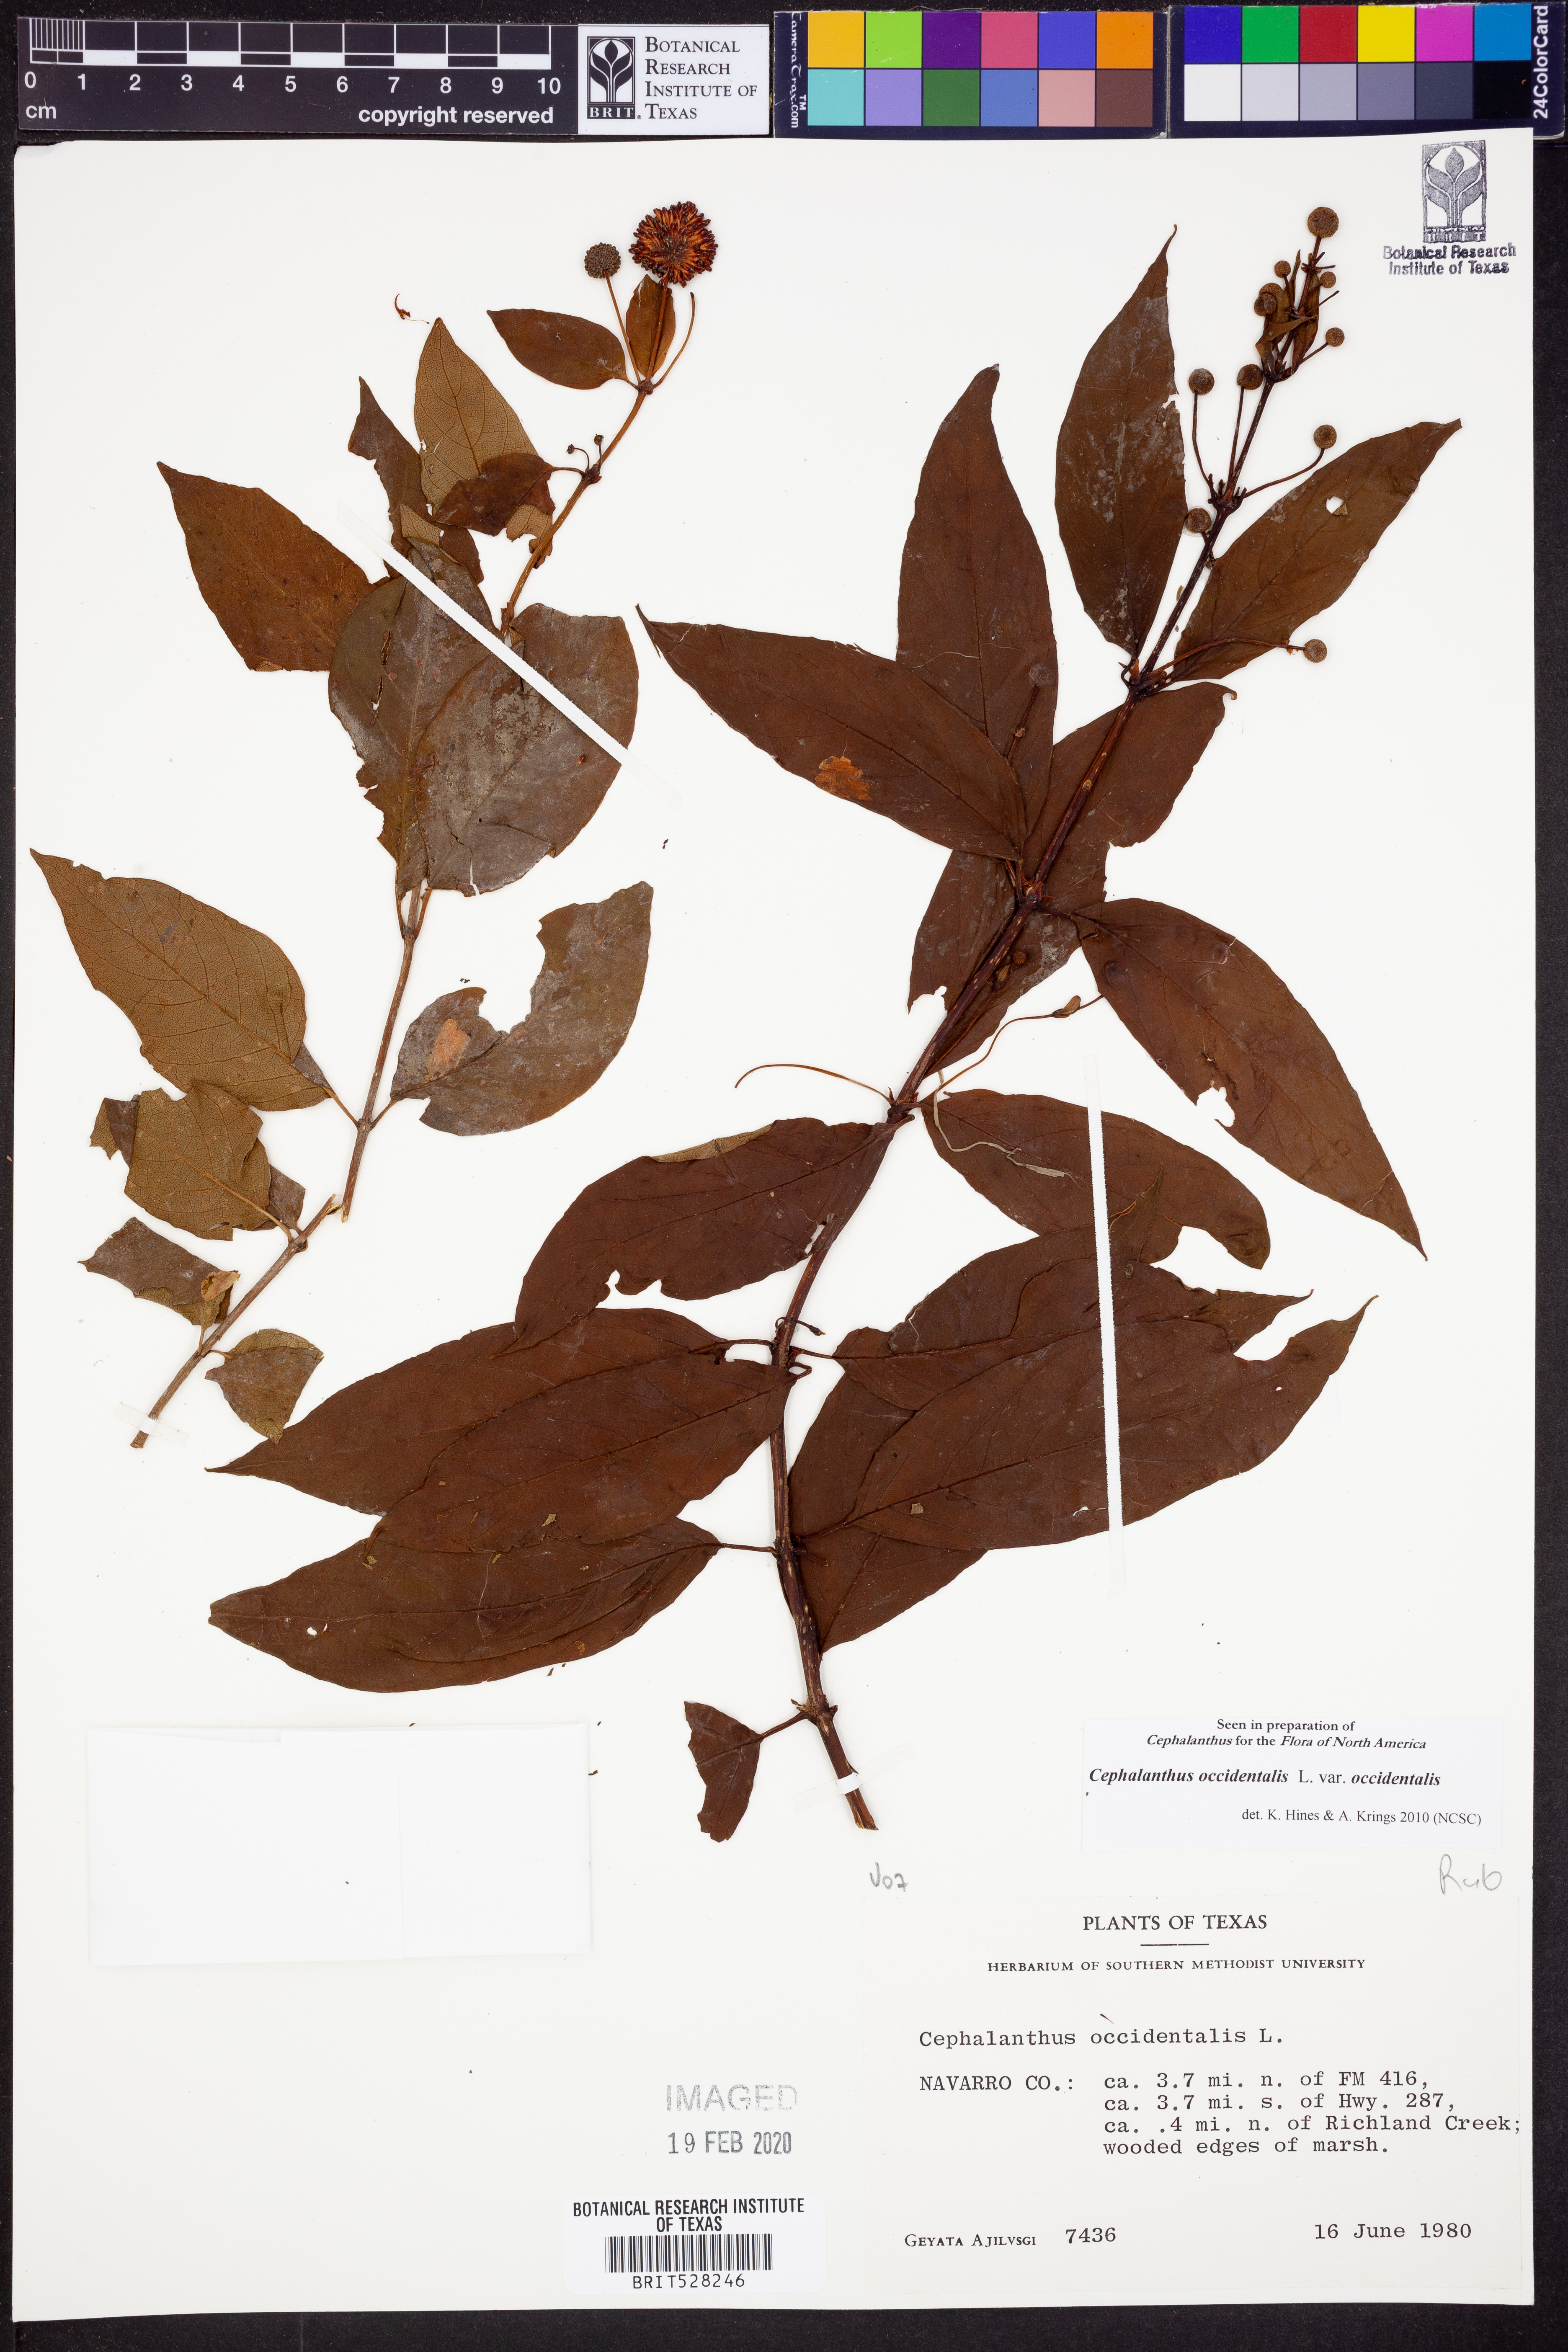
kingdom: Plantae
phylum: Tracheophyta
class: Magnoliopsida
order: Gentianales
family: Rubiaceae
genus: Cephalanthus
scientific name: Cephalanthus occidentalis
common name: Button-willow
